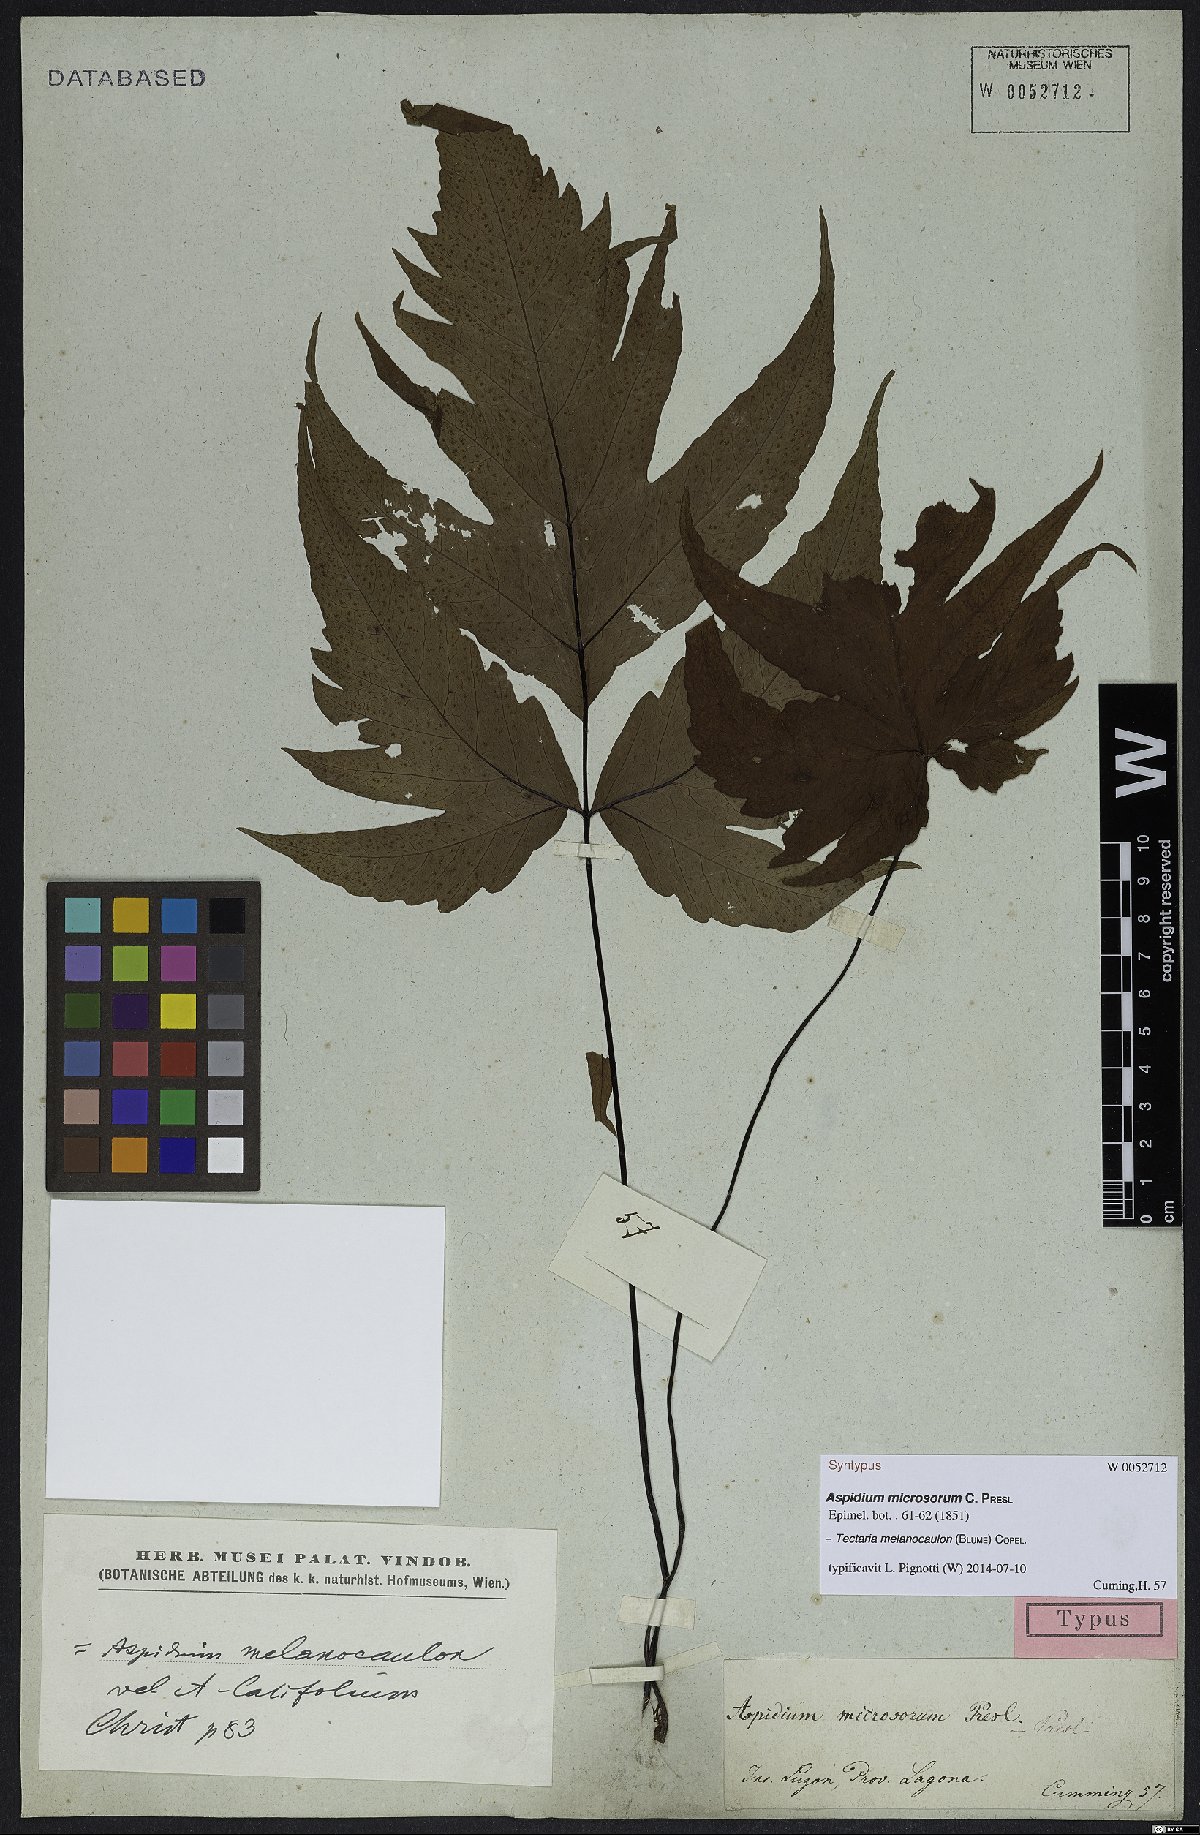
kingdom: Plantae
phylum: Tracheophyta
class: Polypodiopsida
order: Polypodiales
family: Tectariaceae
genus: Tectaria
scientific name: Tectaria melanocaulos
